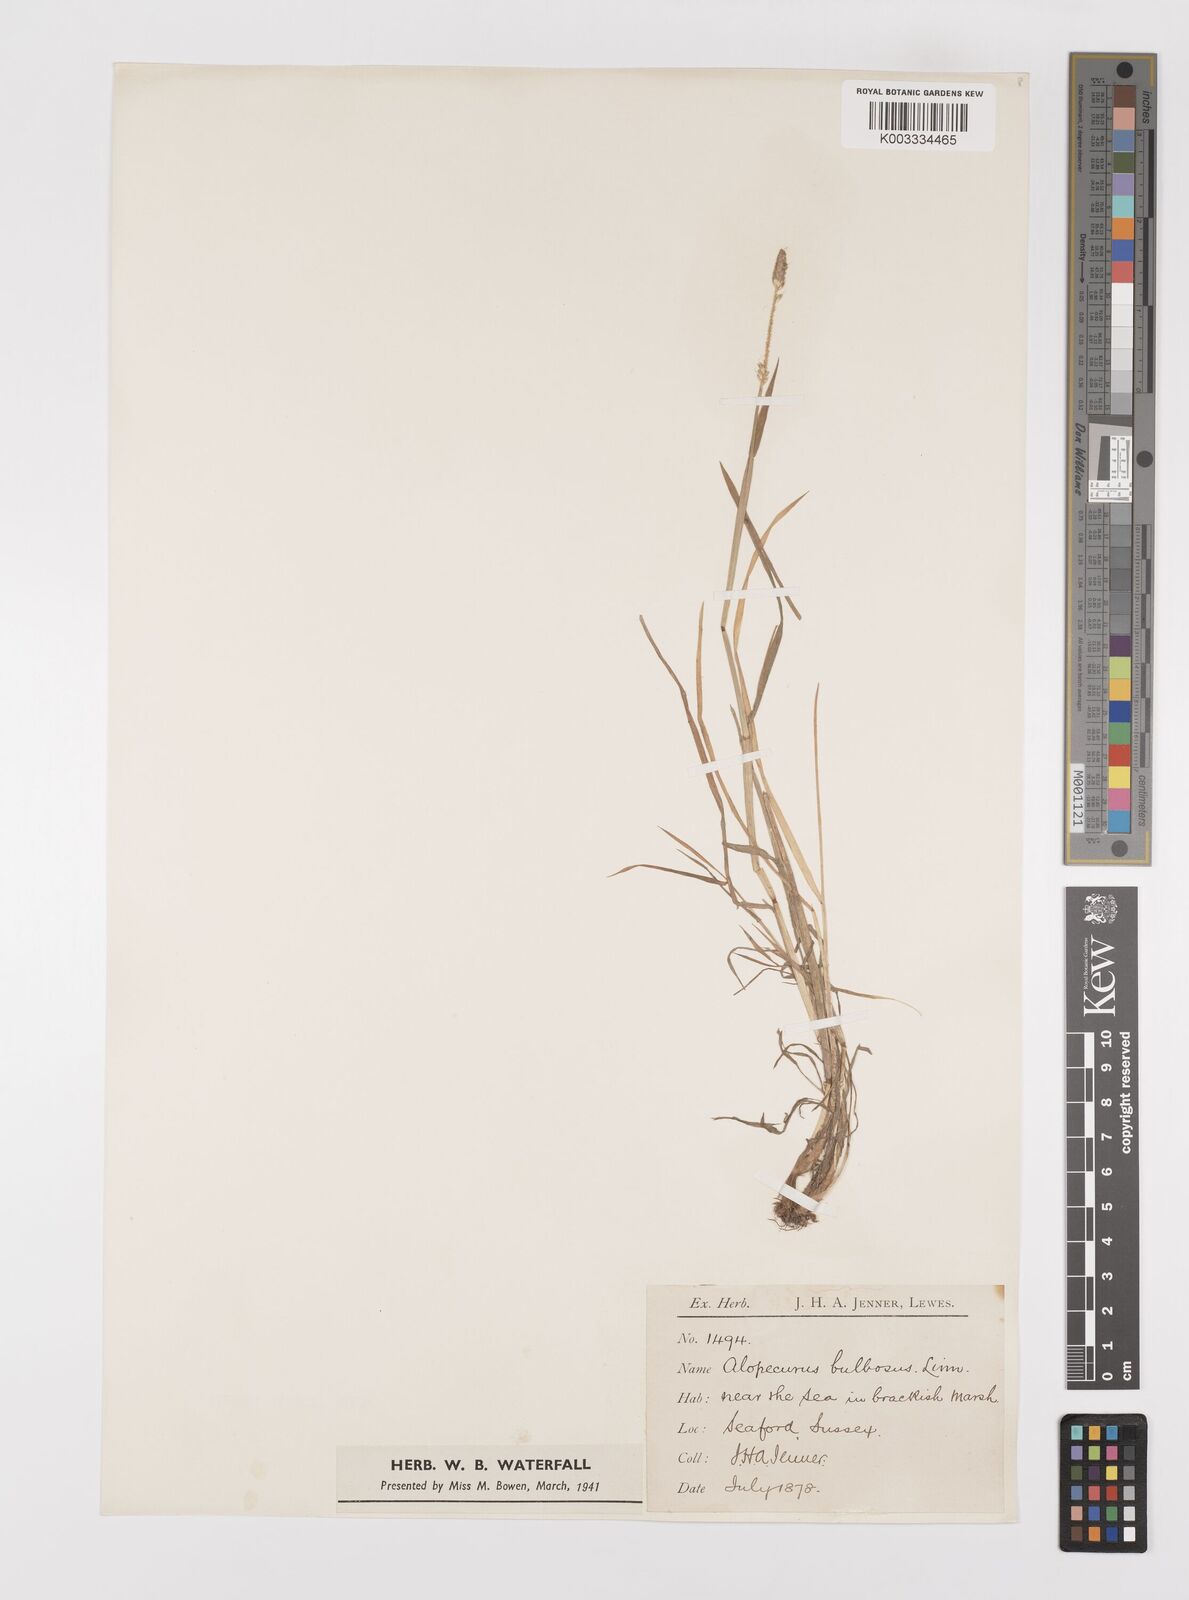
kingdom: Plantae
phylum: Tracheophyta
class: Liliopsida
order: Poales
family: Poaceae
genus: Alopecurus
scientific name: Alopecurus bulbosus
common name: Bulbous foxtail
